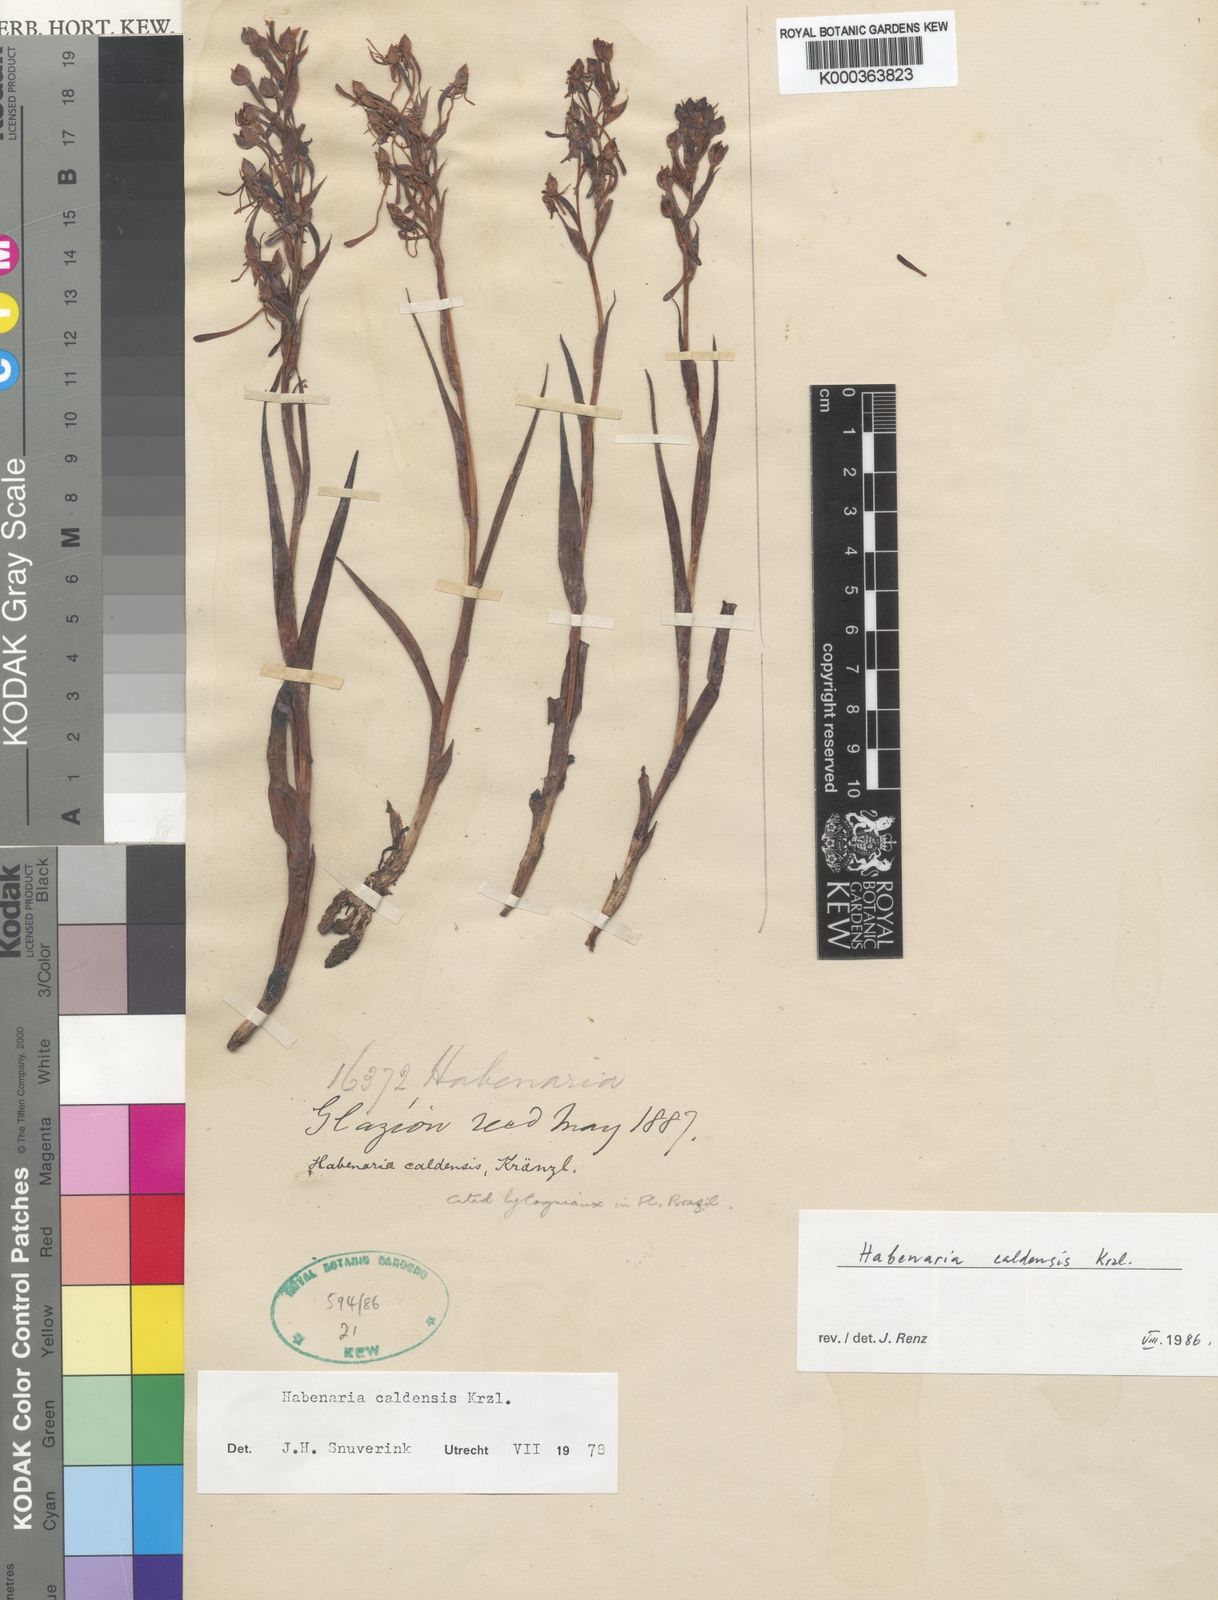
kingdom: Plantae
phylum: Tracheophyta
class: Liliopsida
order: Asparagales
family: Orchidaceae
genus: Habenaria
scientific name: Habenaria caldensis
